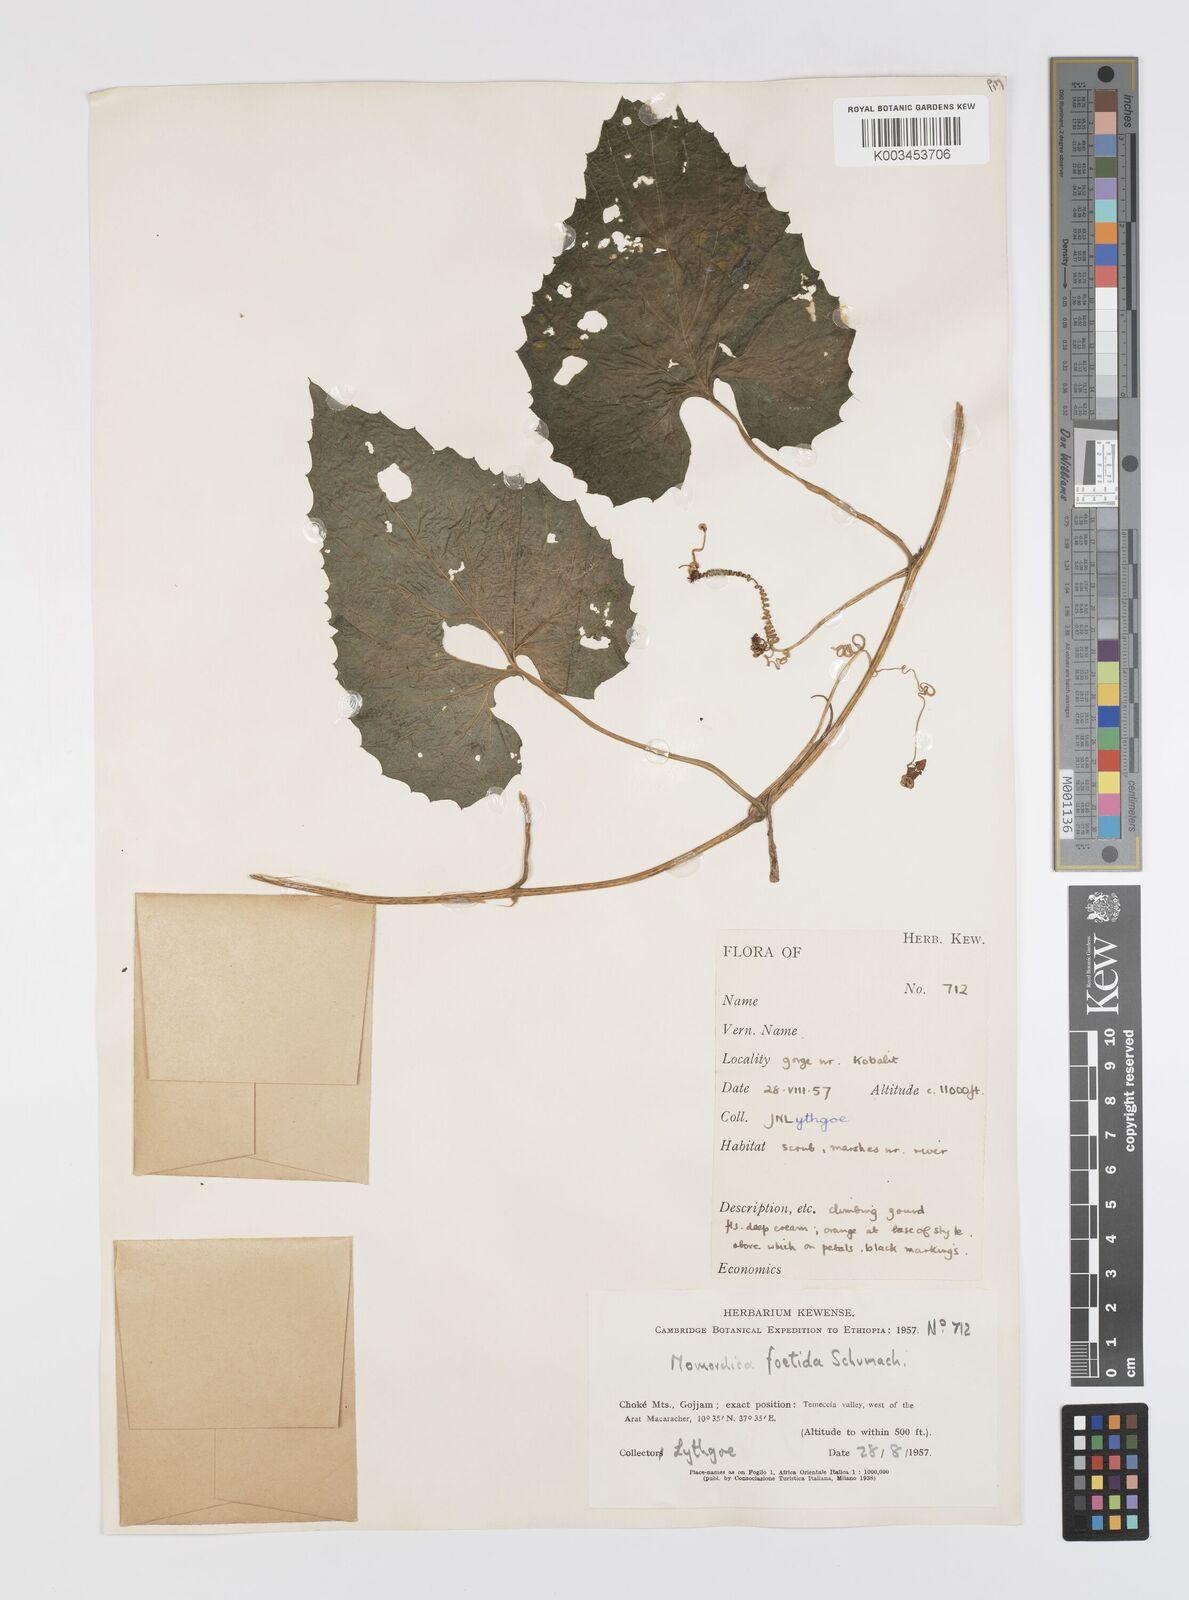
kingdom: Plantae
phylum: Tracheophyta
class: Magnoliopsida
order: Cucurbitales
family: Cucurbitaceae
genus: Momordica
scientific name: Momordica foetida
